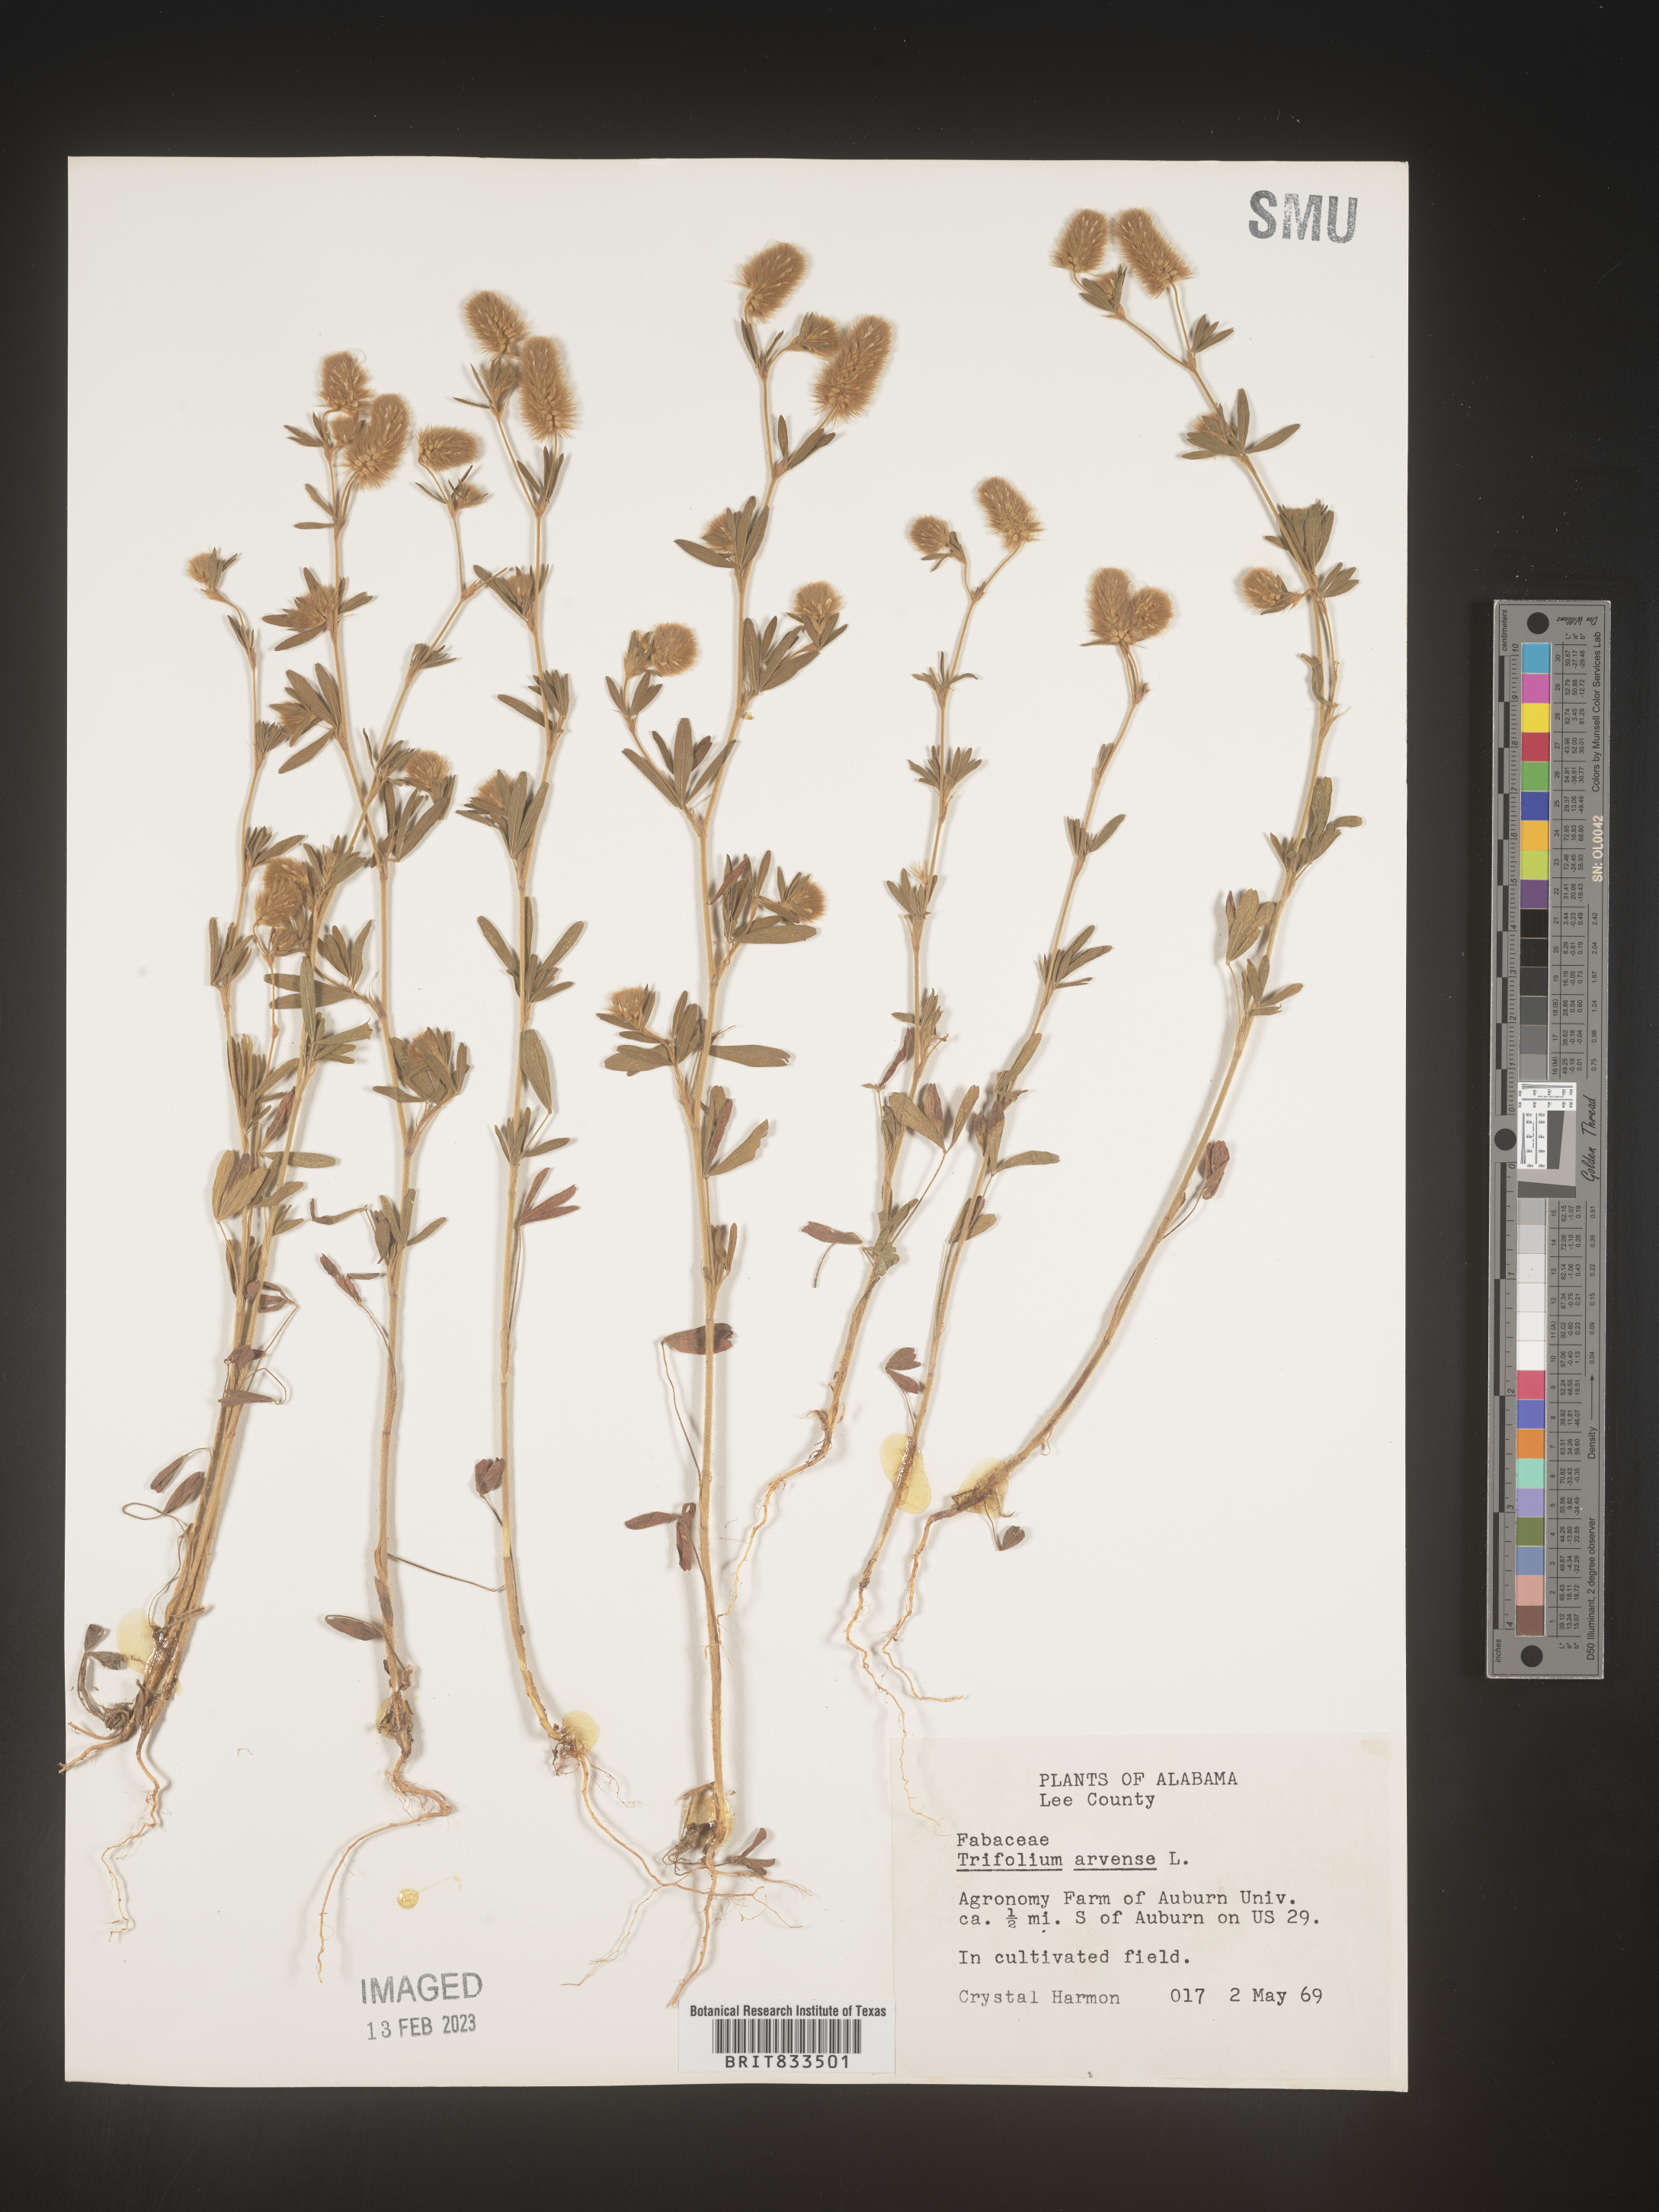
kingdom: Plantae
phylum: Tracheophyta
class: Magnoliopsida
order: Fabales
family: Fabaceae
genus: Trifolium
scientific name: Trifolium arvense
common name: Hare's-foot clover
